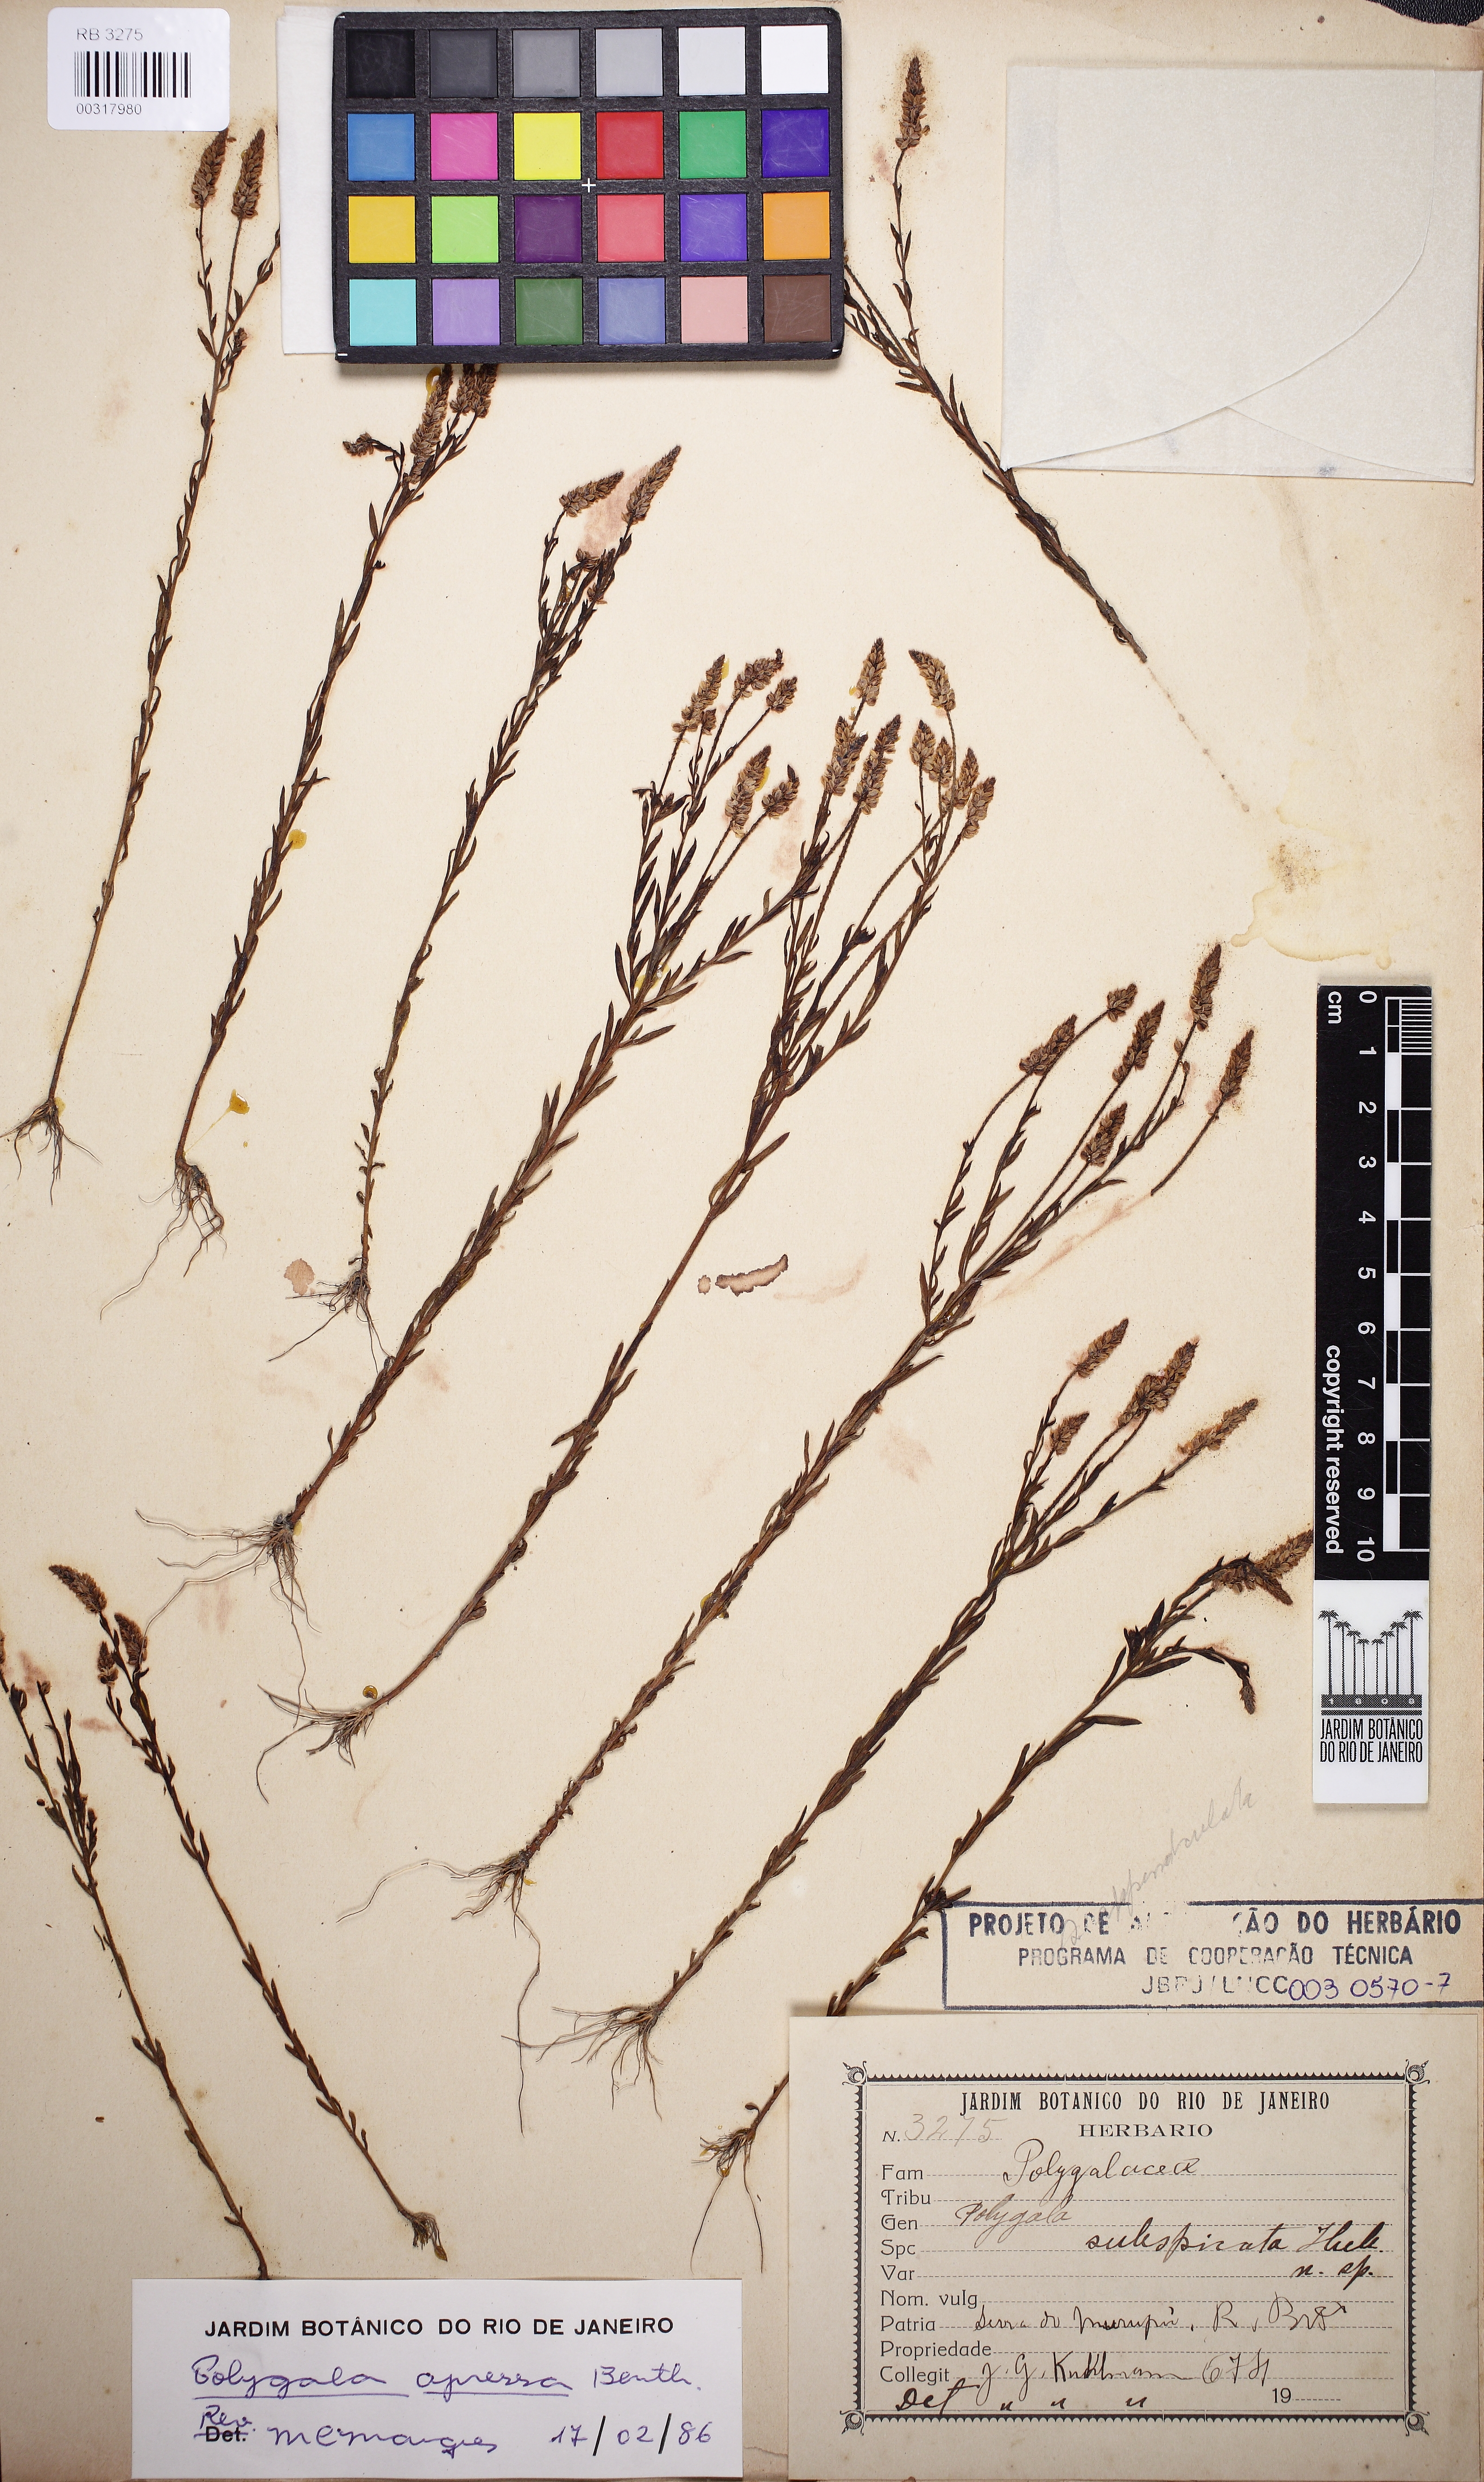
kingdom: Plantae
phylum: Tracheophyta
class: Magnoliopsida
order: Fabales
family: Polygalaceae
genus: Polygala
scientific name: Polygala appressa
